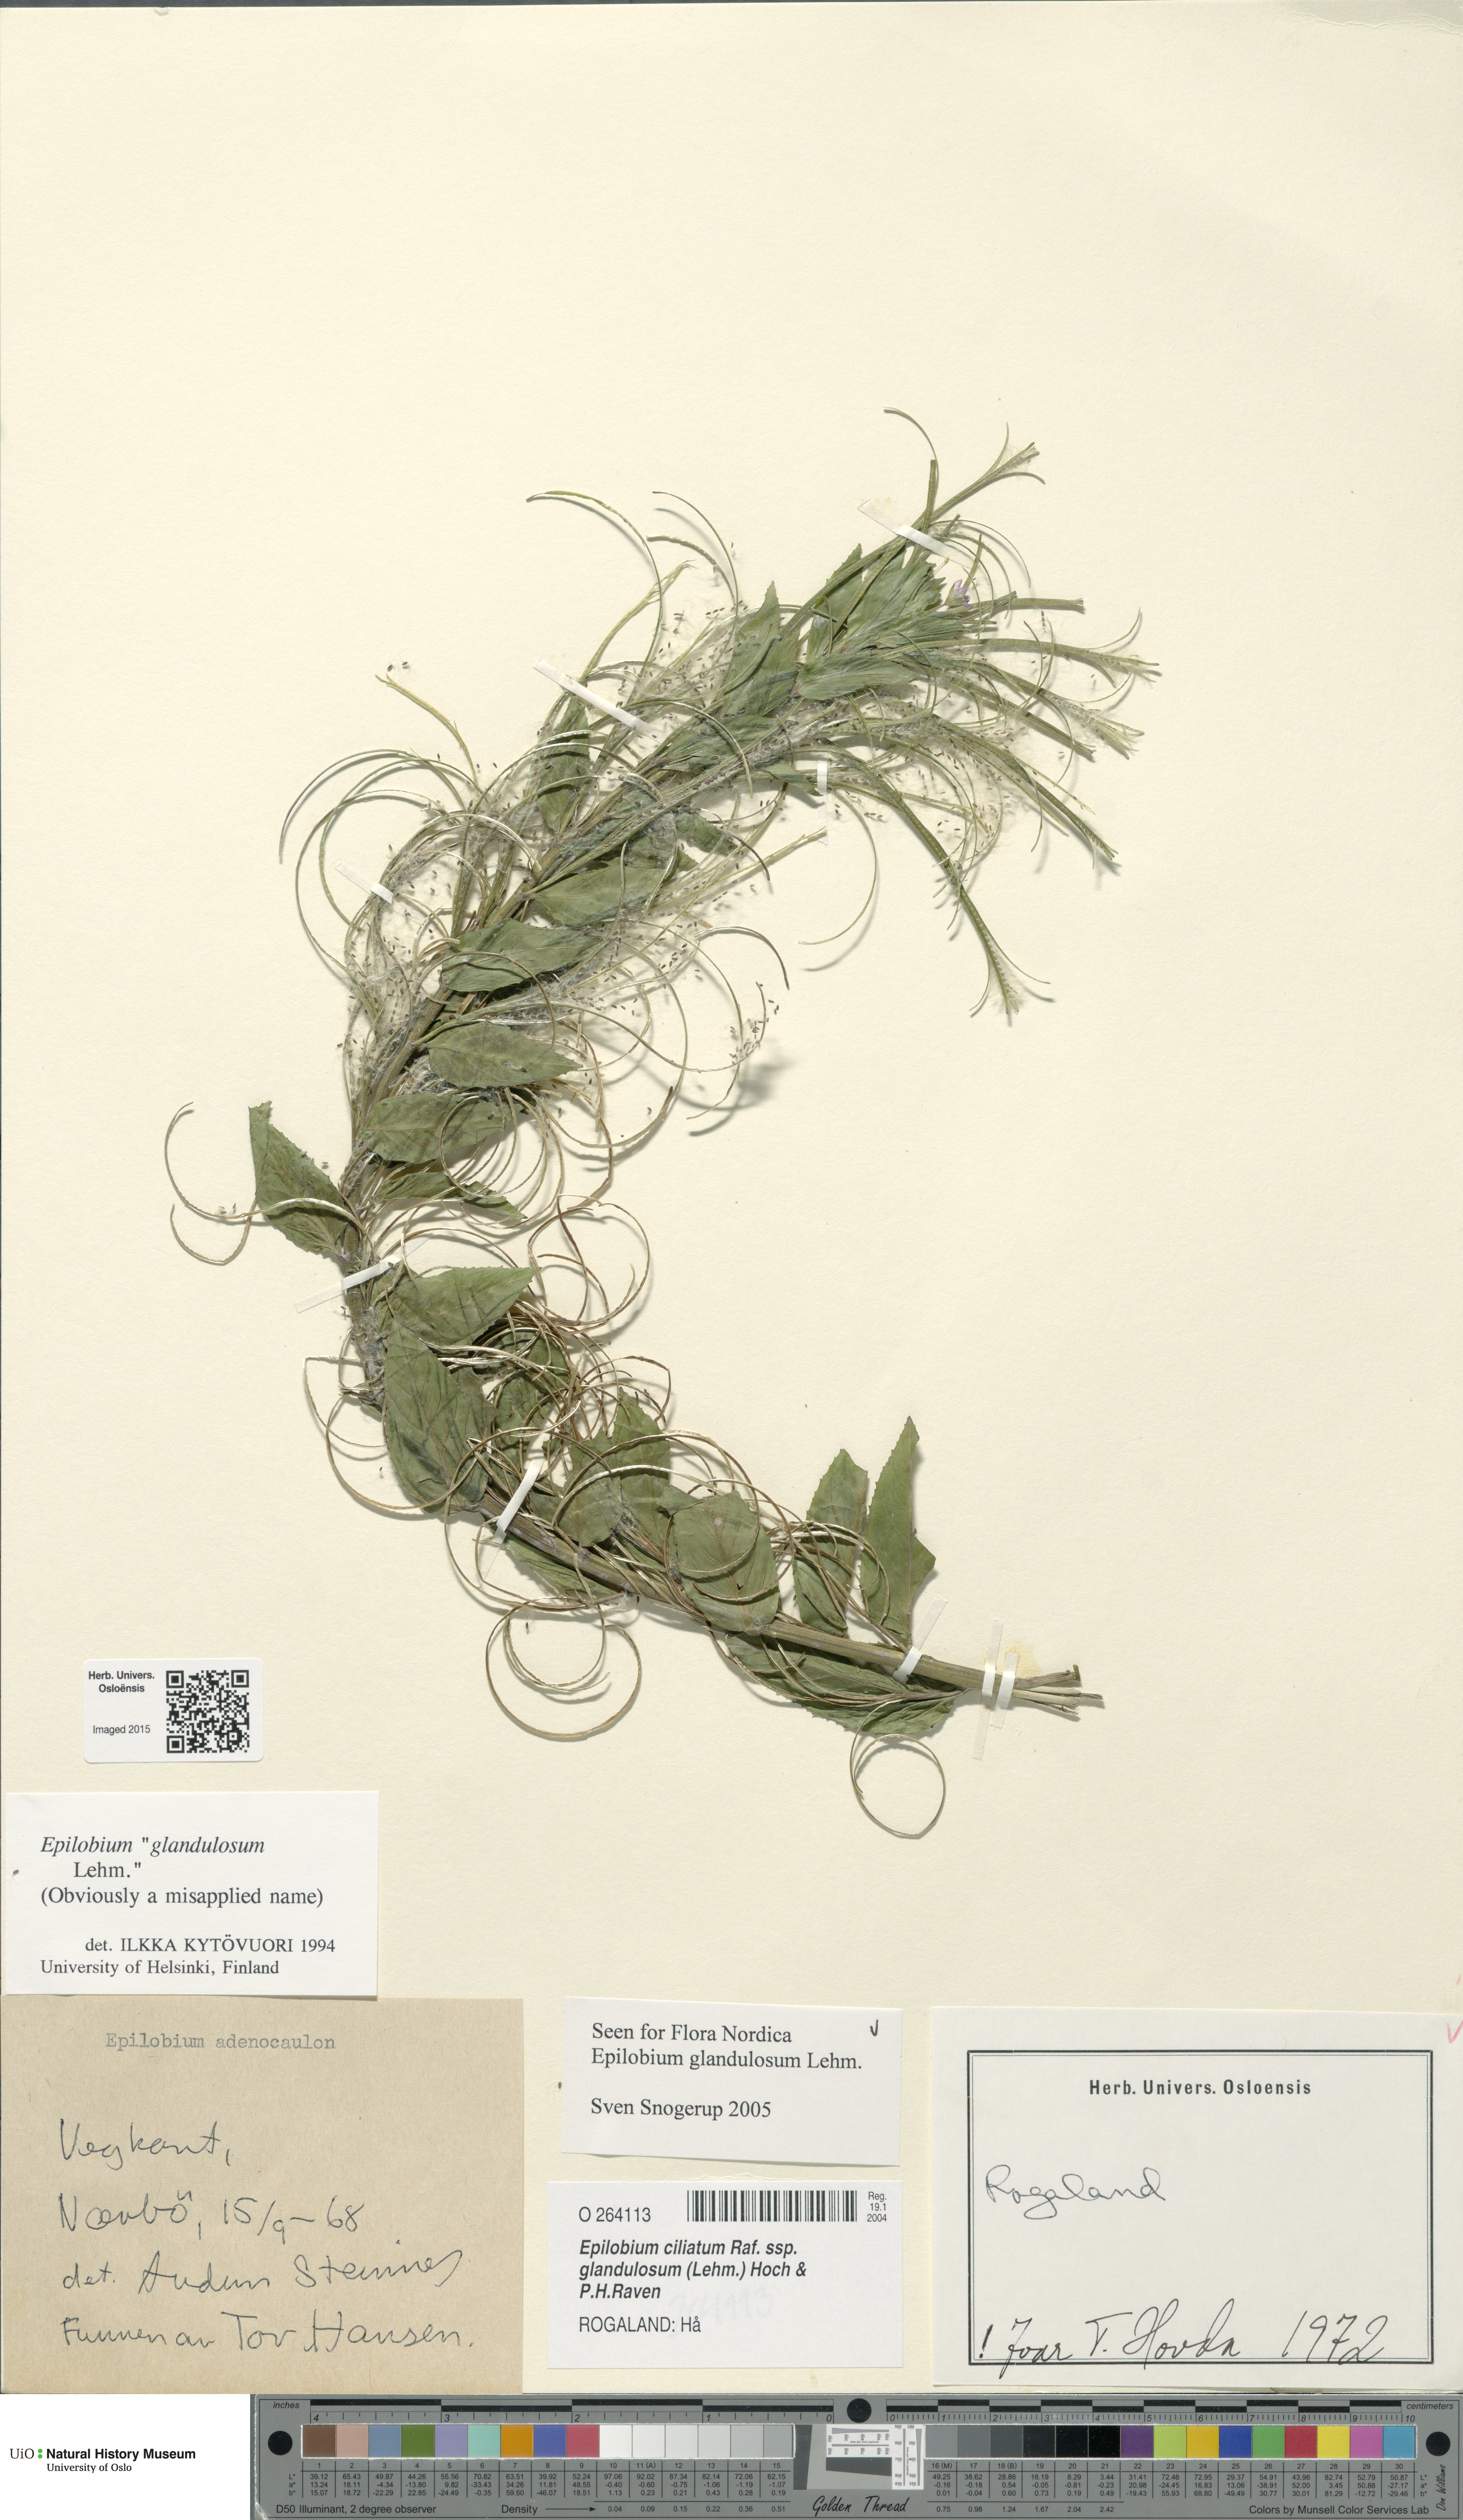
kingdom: Plantae
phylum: Tracheophyta
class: Magnoliopsida
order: Myrtales
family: Onagraceae
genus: Epilobium
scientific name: Epilobium ciliatum
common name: American willowherb
